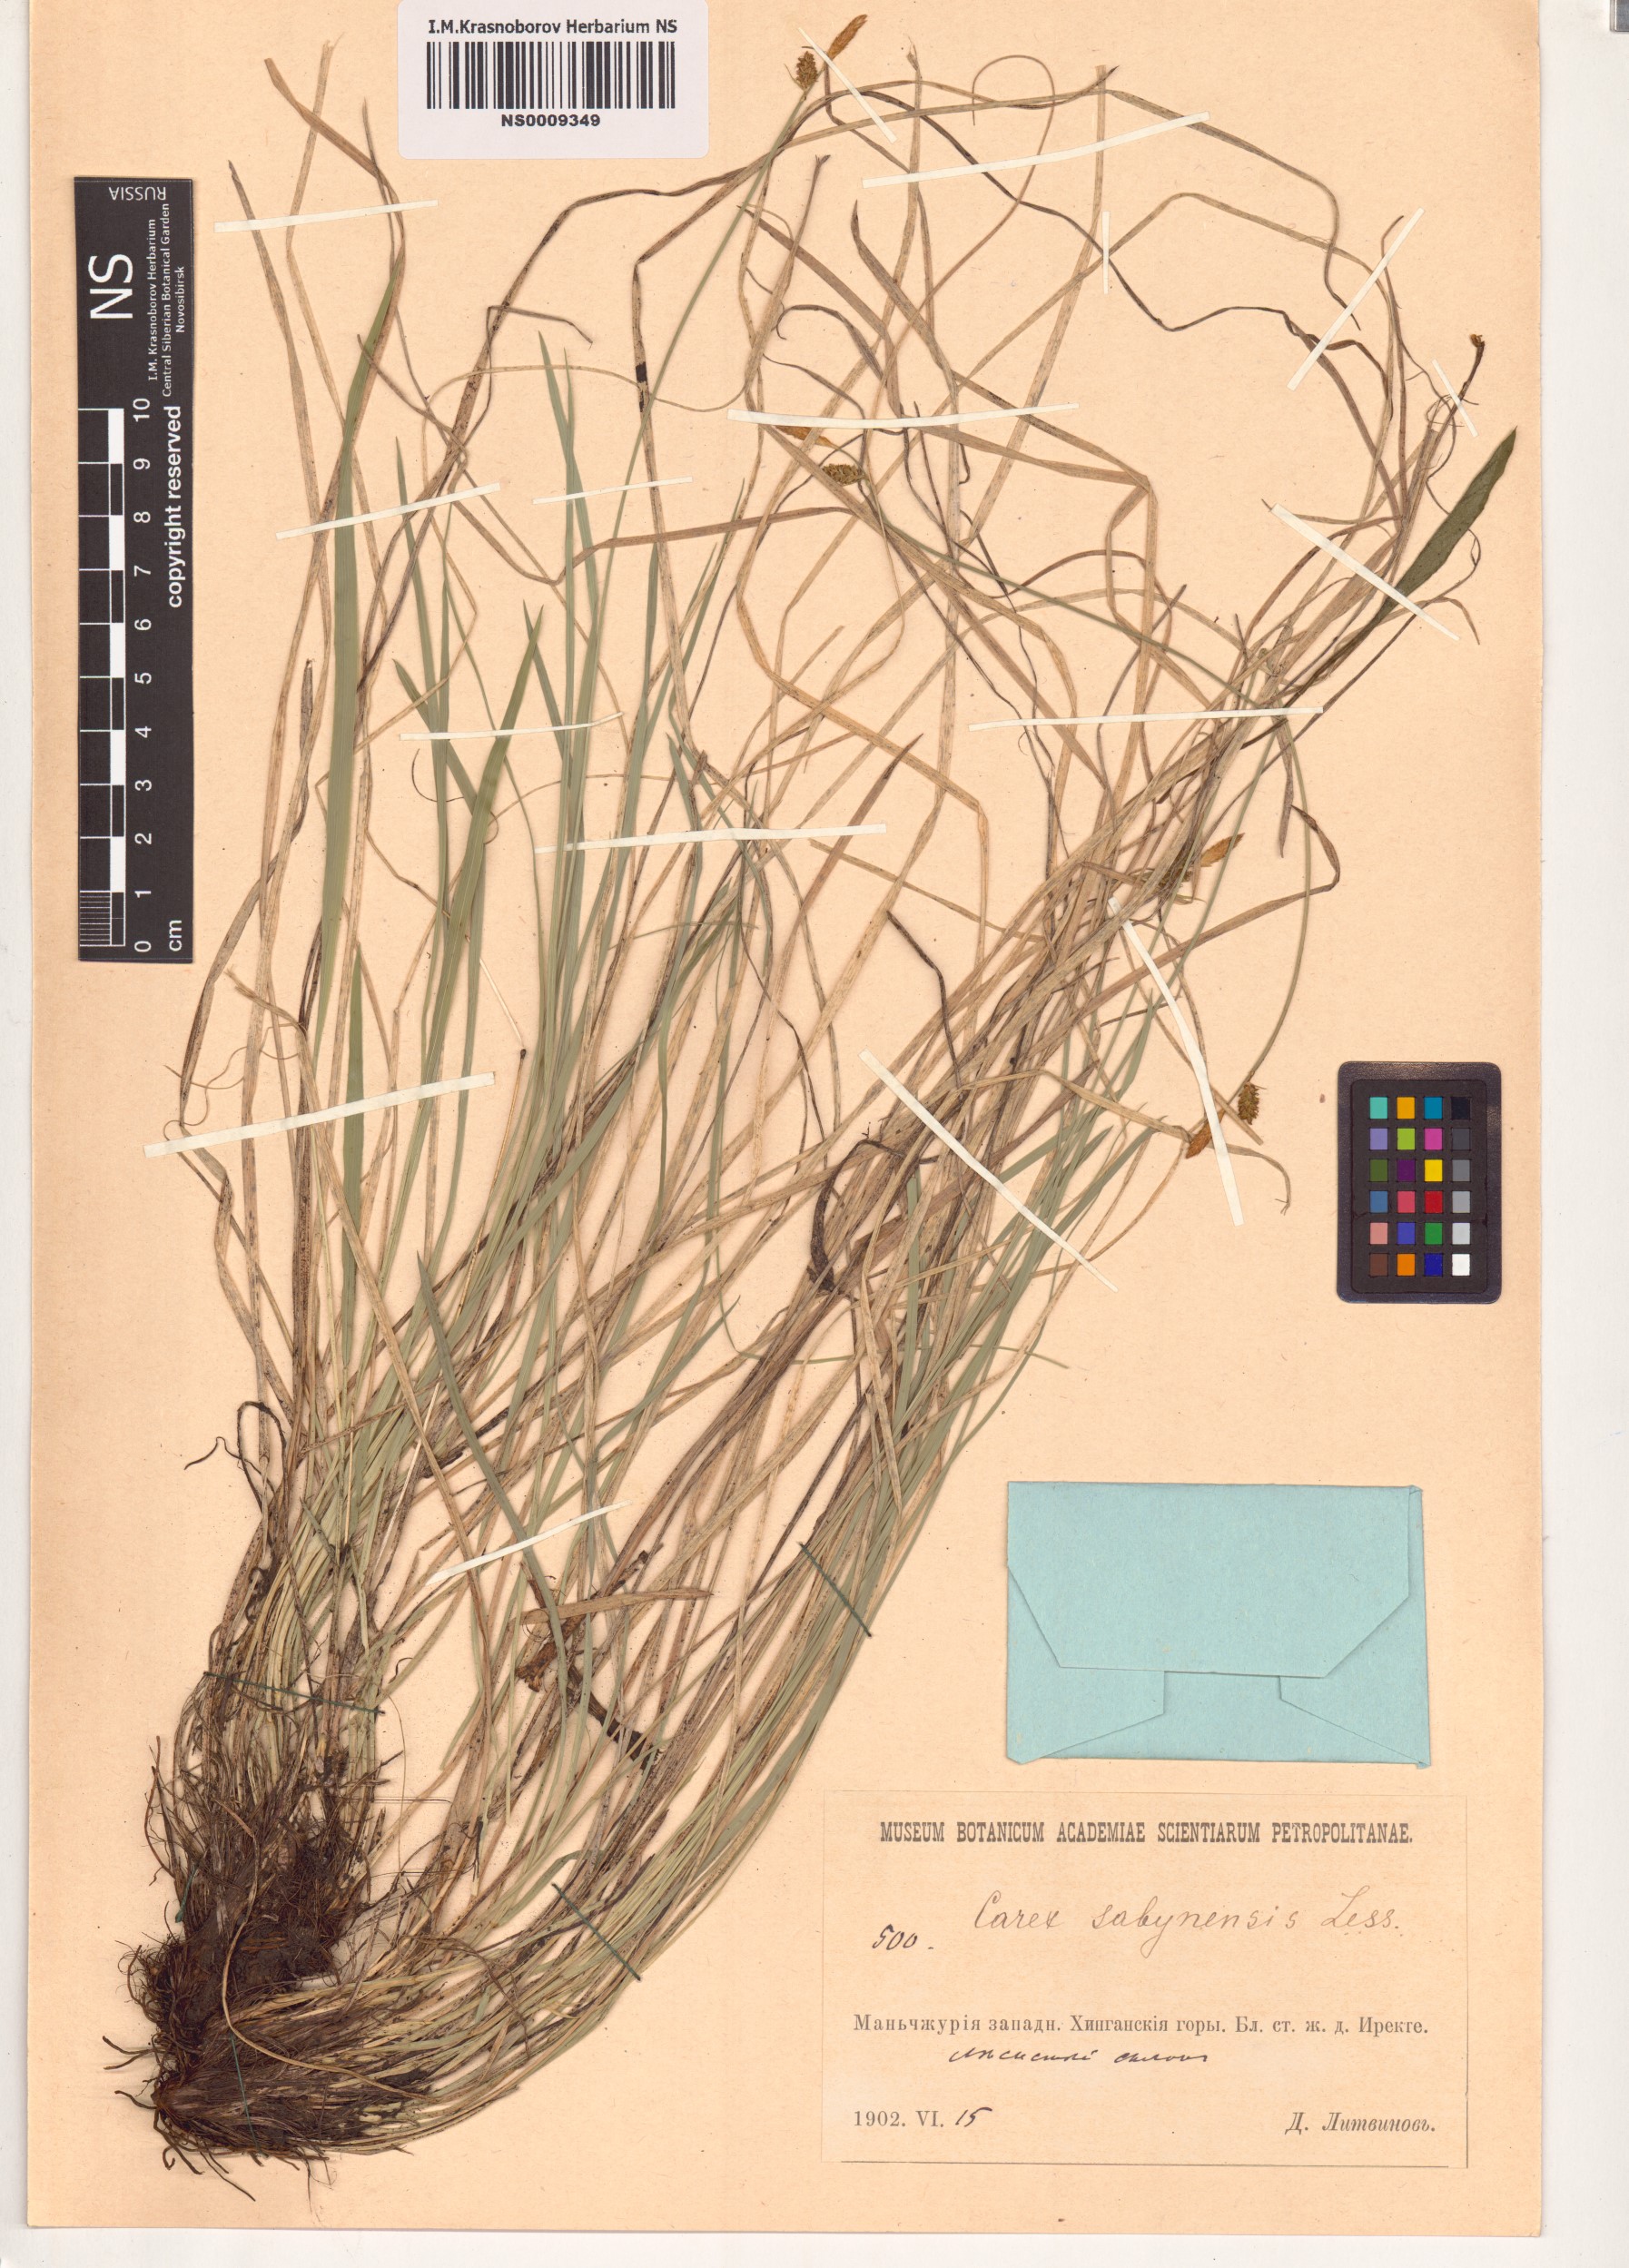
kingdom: Plantae
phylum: Tracheophyta
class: Liliopsida
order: Poales
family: Cyperaceae
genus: Carex
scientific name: Carex umbrosa
